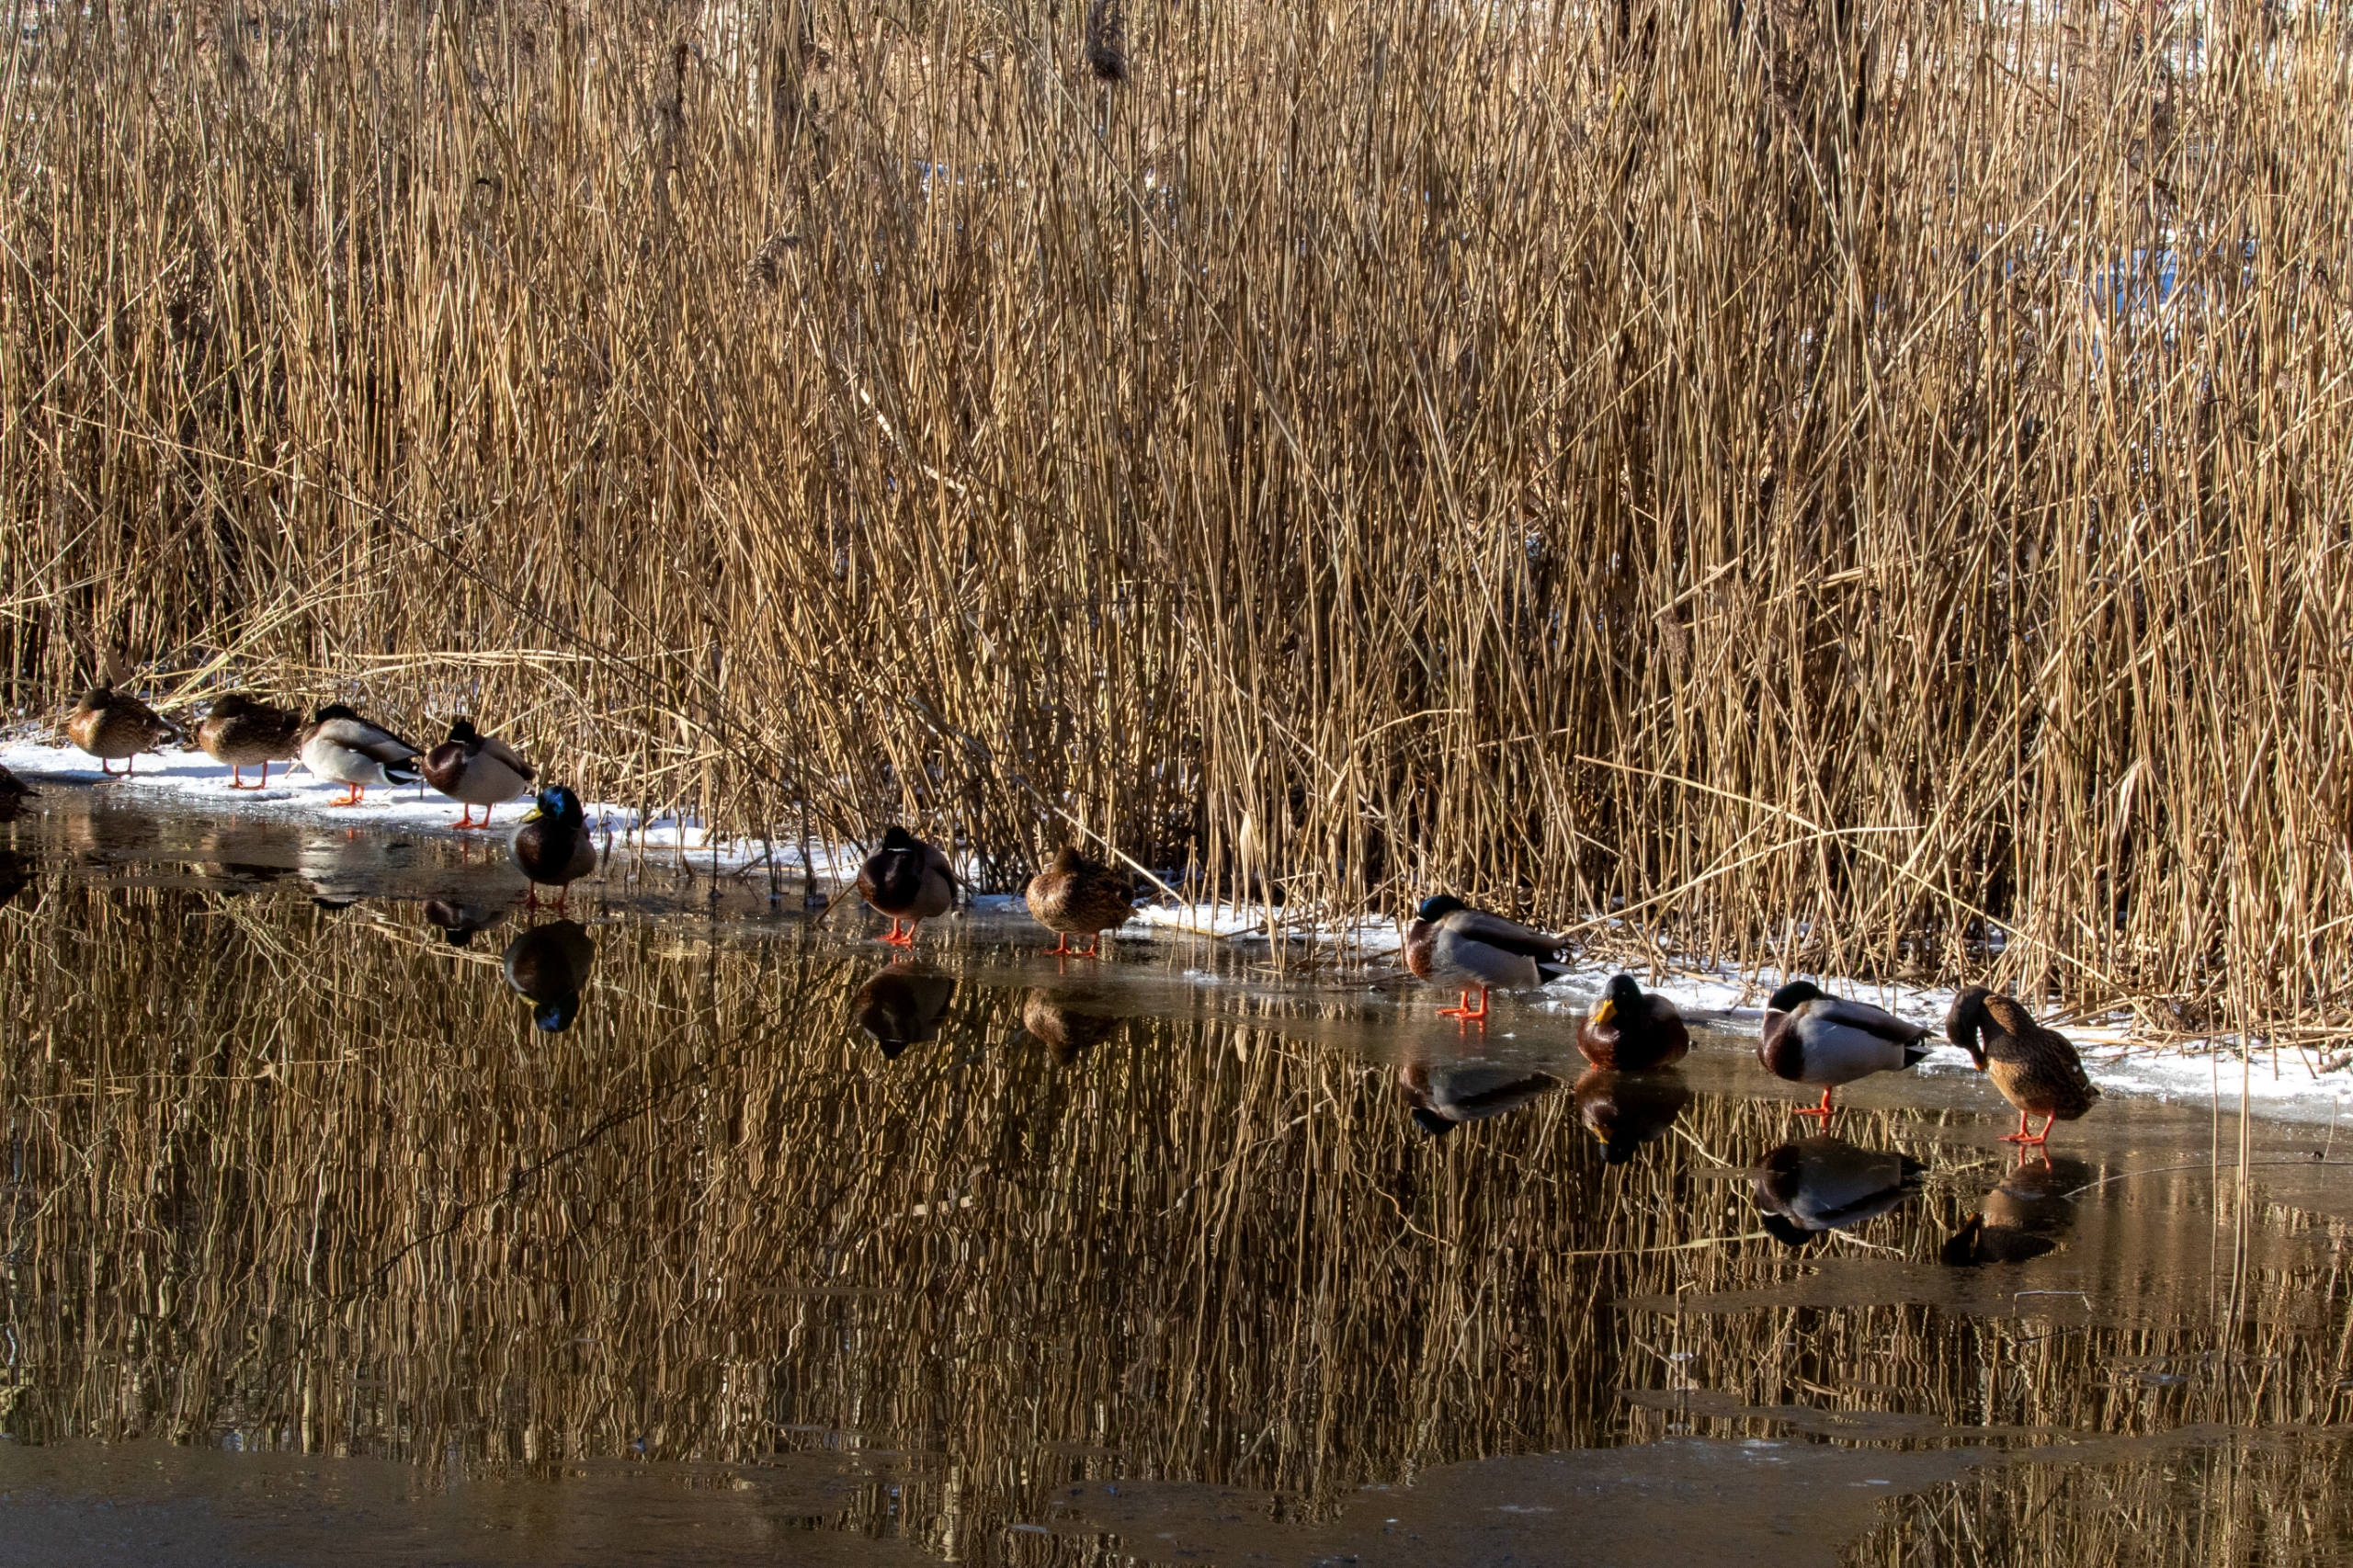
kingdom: Animalia
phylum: Chordata
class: Aves
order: Anseriformes
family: Anatidae
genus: Anas
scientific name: Anas platyrhynchos
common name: Gråand
